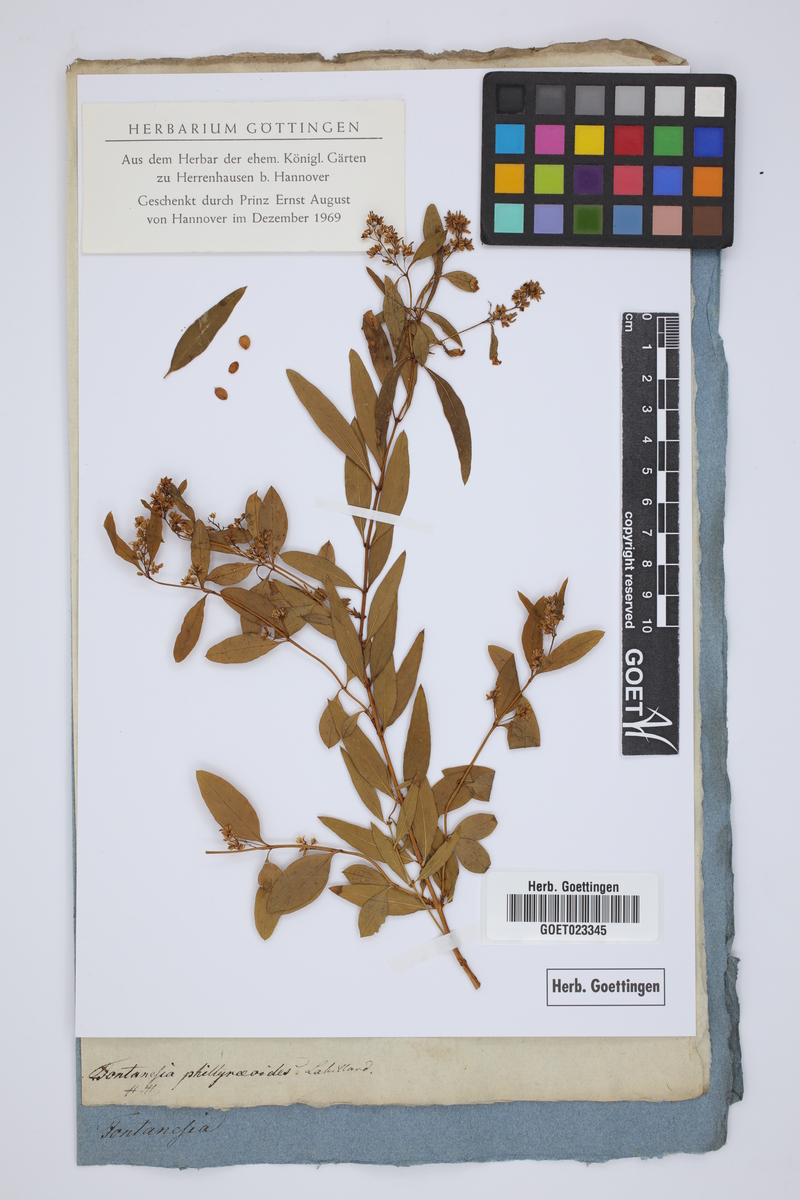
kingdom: Plantae
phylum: Tracheophyta
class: Magnoliopsida
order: Lamiales
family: Oleaceae
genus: Fontanesia
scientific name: Fontanesia phillyreoides
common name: Syrian-privet
